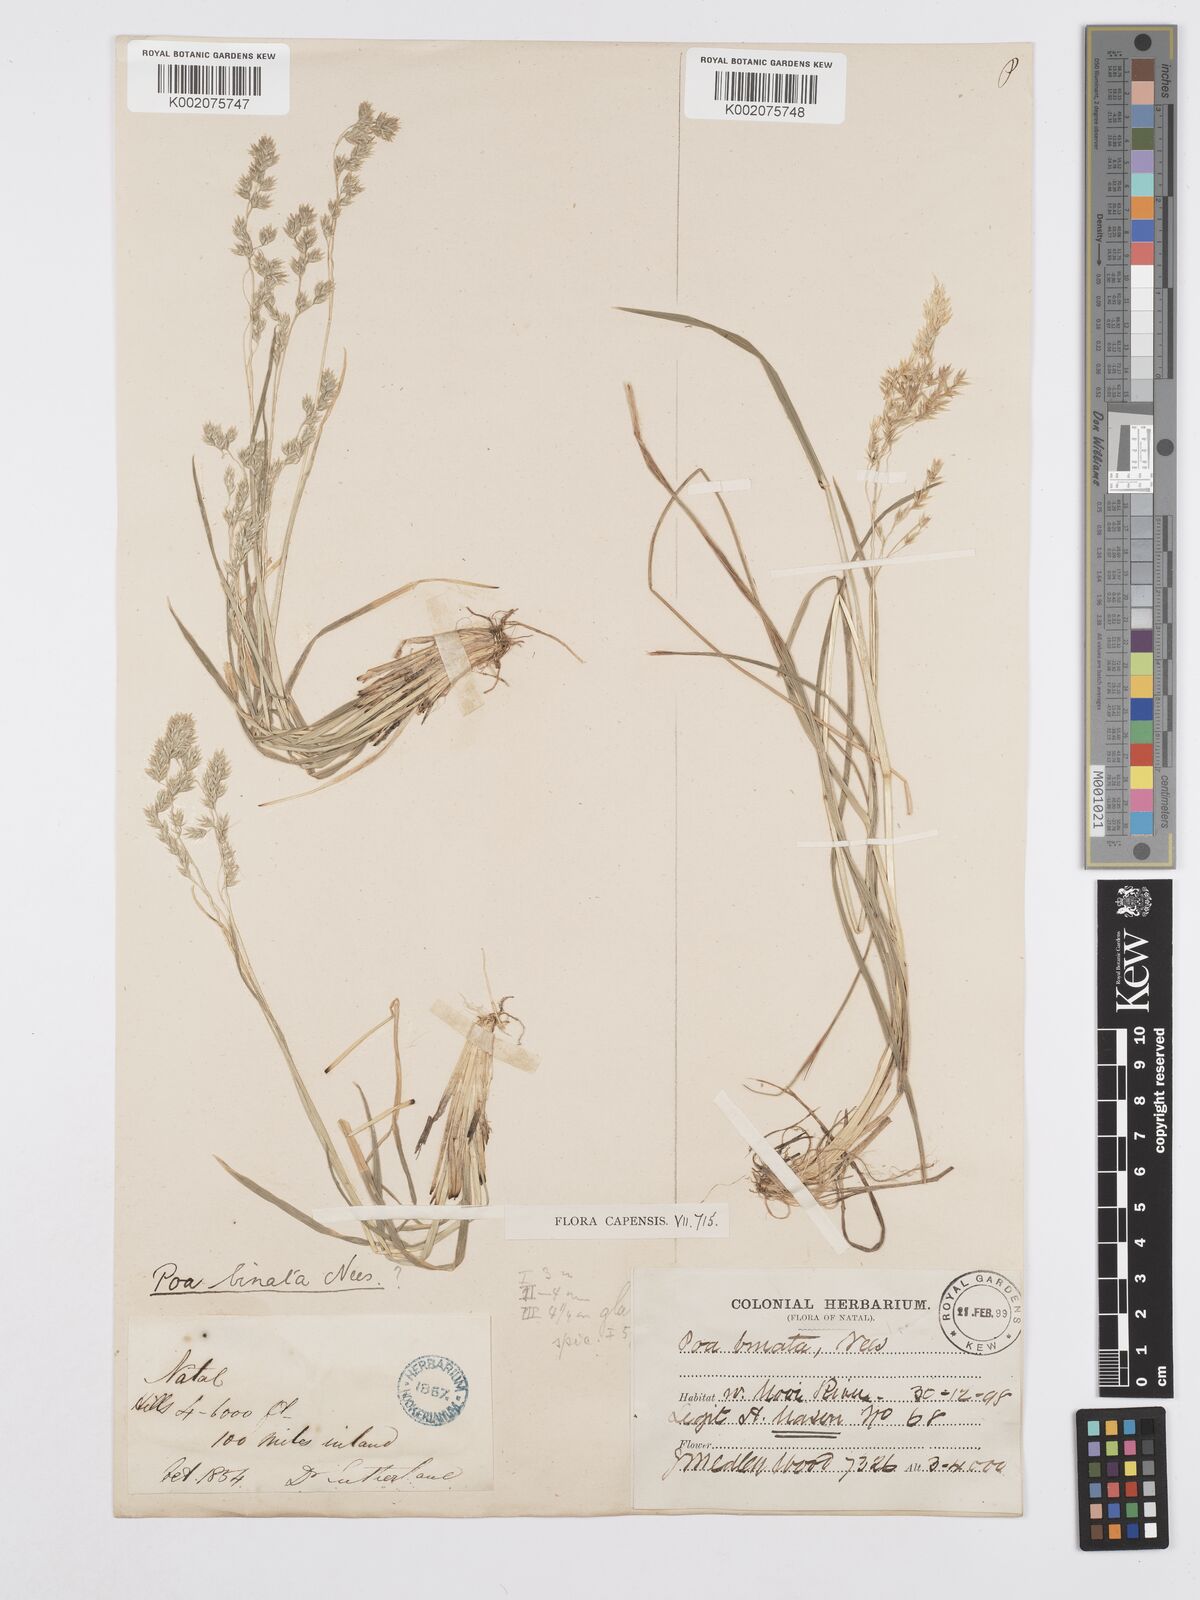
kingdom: Plantae
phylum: Tracheophyta
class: Liliopsida
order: Poales
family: Poaceae
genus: Poa
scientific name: Poa binata
